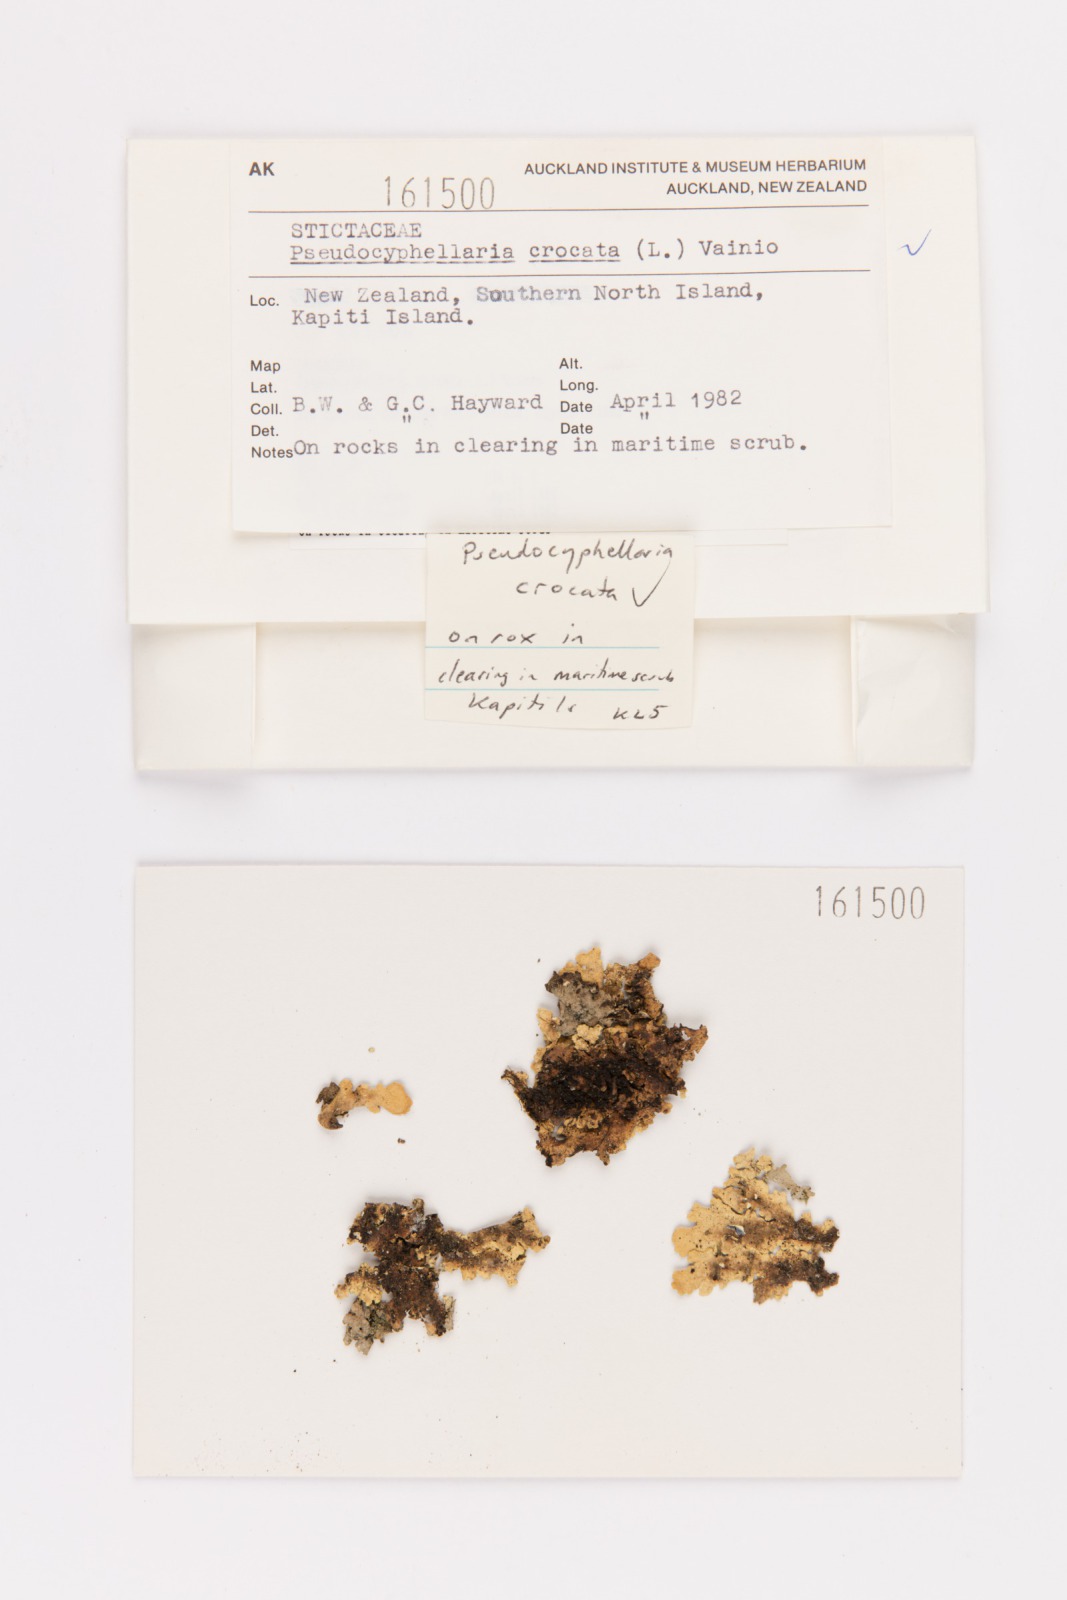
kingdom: Fungi
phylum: Ascomycota
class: Lecanoromycetes
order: Peltigerales
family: Lobariaceae
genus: Pseudocyphellaria
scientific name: Pseudocyphellaria crocata
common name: Golden specklebelly
